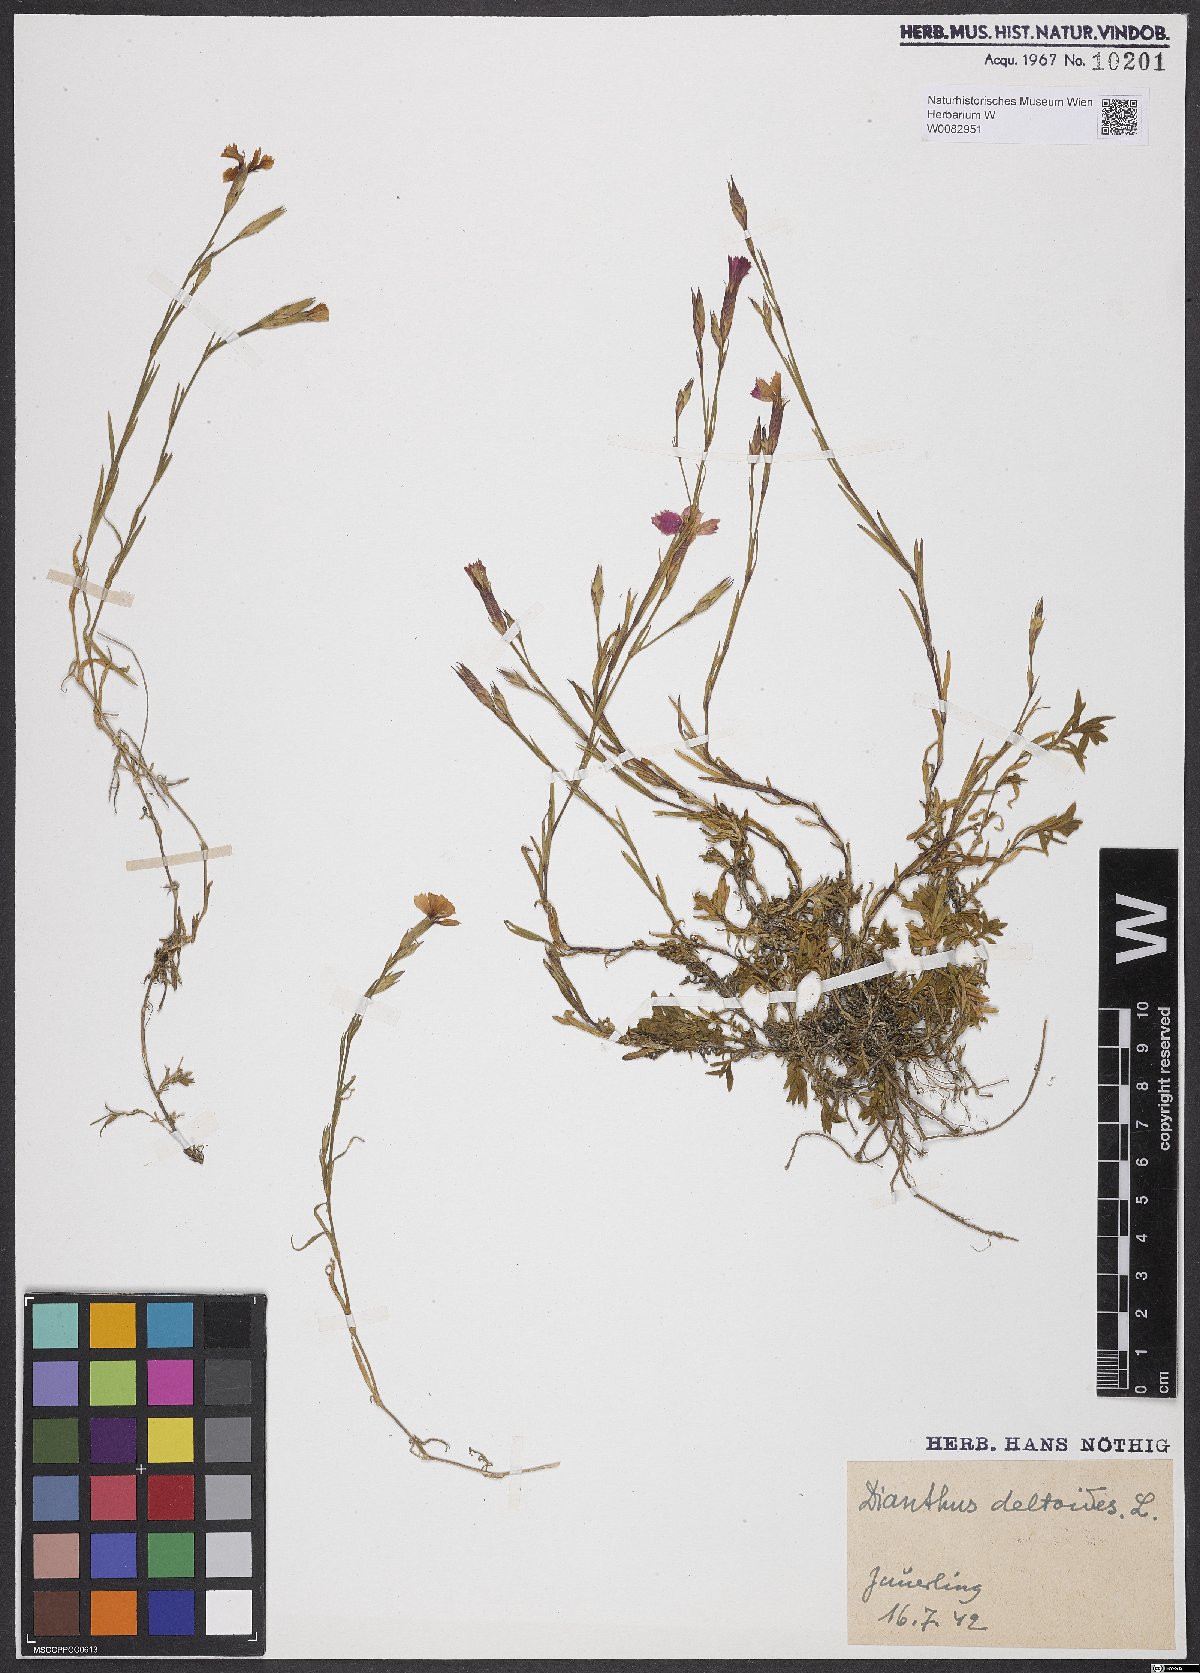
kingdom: Plantae
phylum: Tracheophyta
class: Magnoliopsida
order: Caryophyllales
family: Caryophyllaceae
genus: Dianthus
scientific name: Dianthus deltoides
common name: Maiden pink
